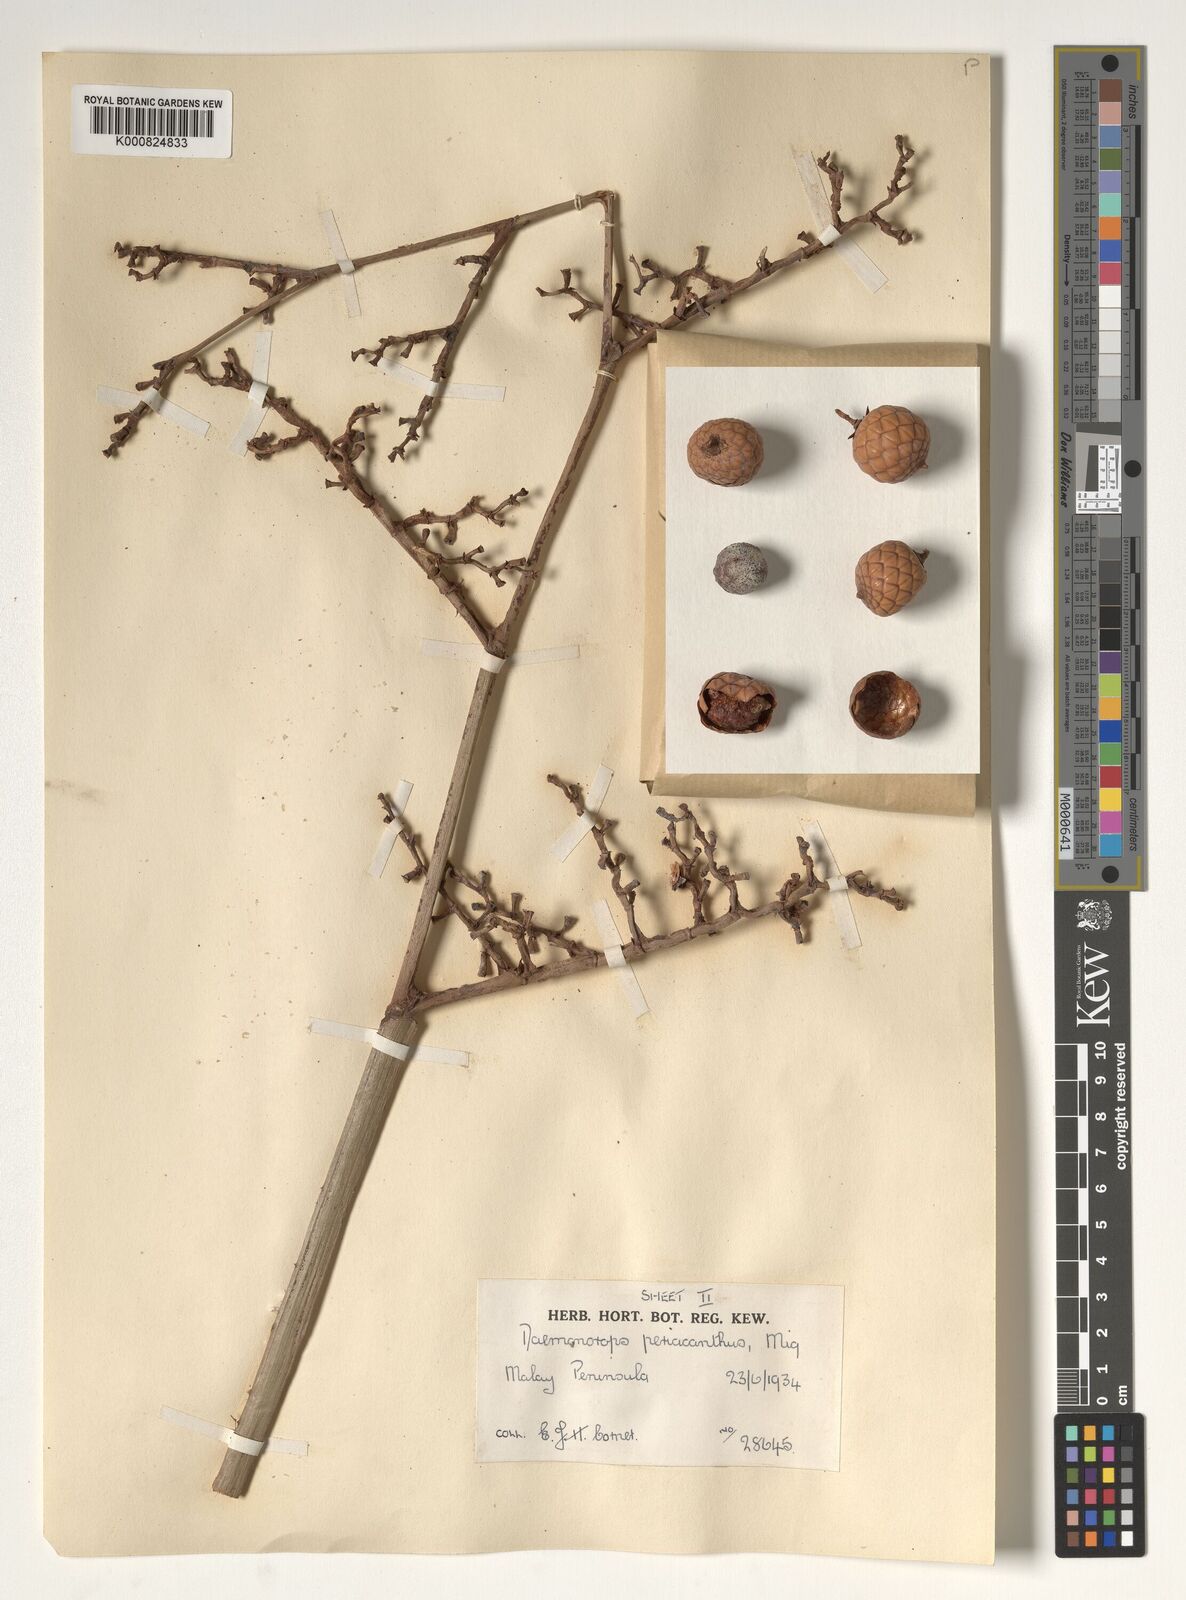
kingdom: Plantae
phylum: Tracheophyta
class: Liliopsida
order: Arecales
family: Arecaceae
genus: Calamus
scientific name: Calamus periacanthus
